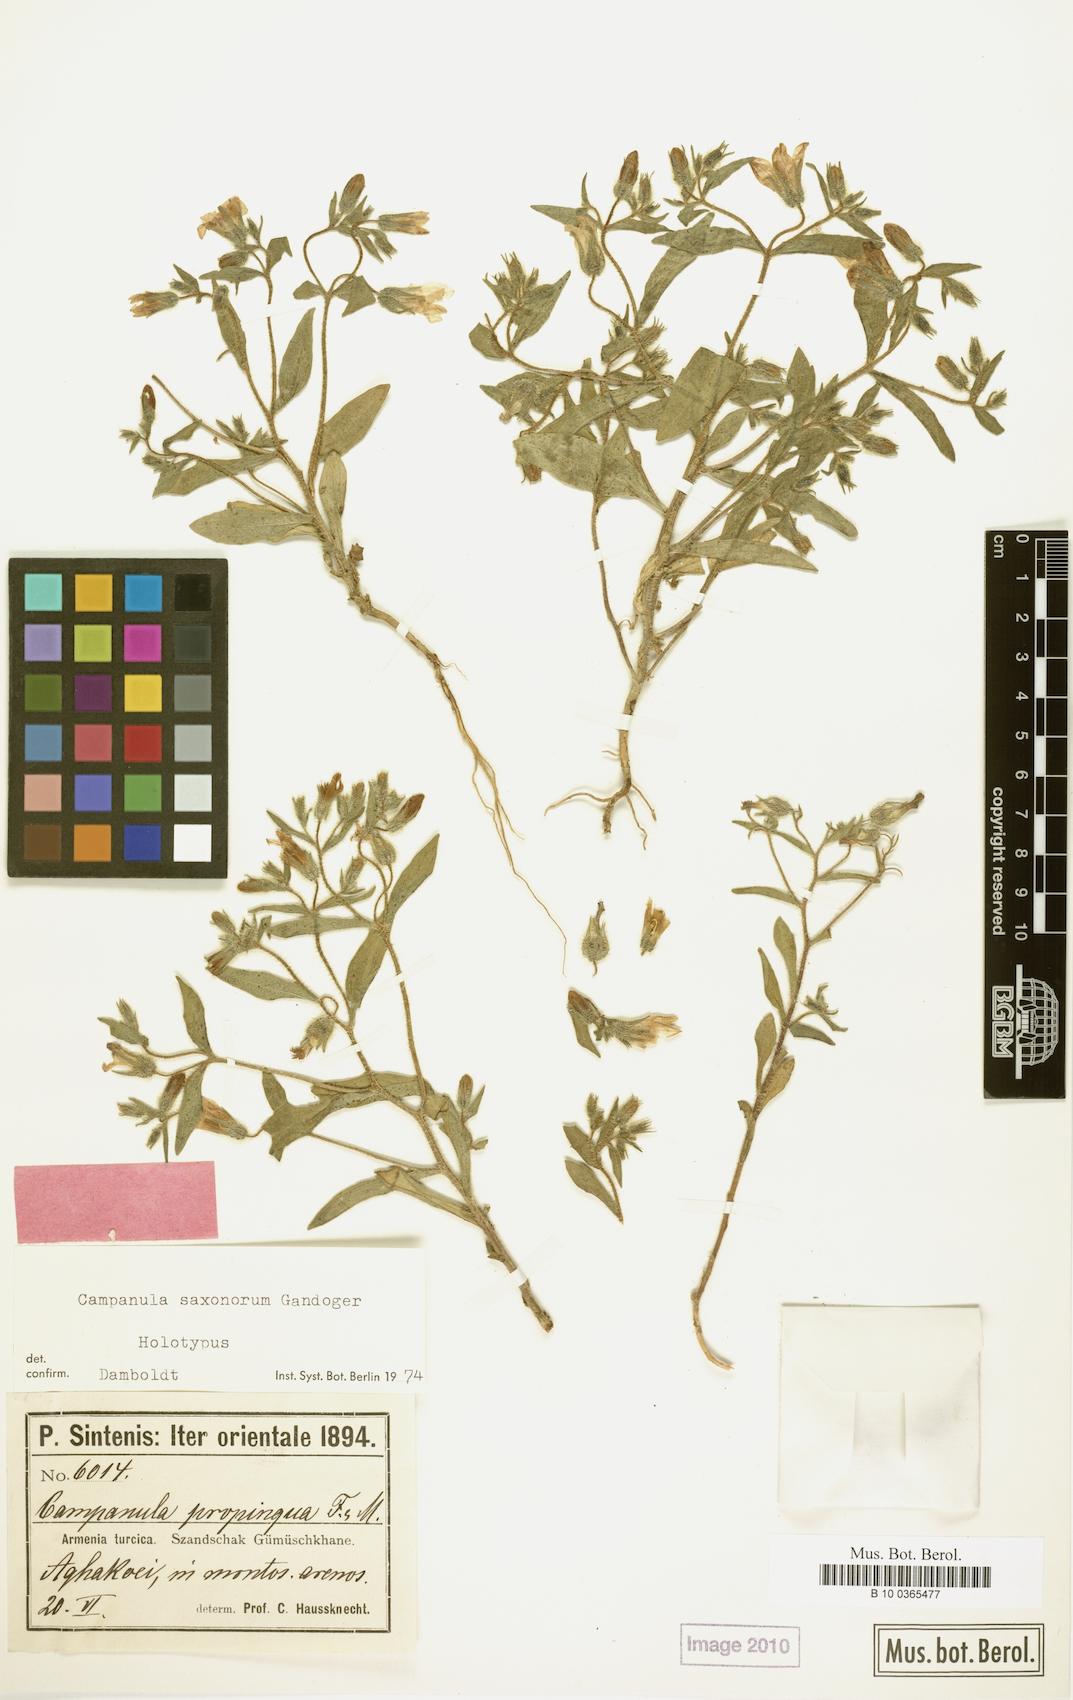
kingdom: Plantae
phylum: Tracheophyta
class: Magnoliopsida
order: Asterales
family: Campanulaceae
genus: Campanula
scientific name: Campanula saxonorum
